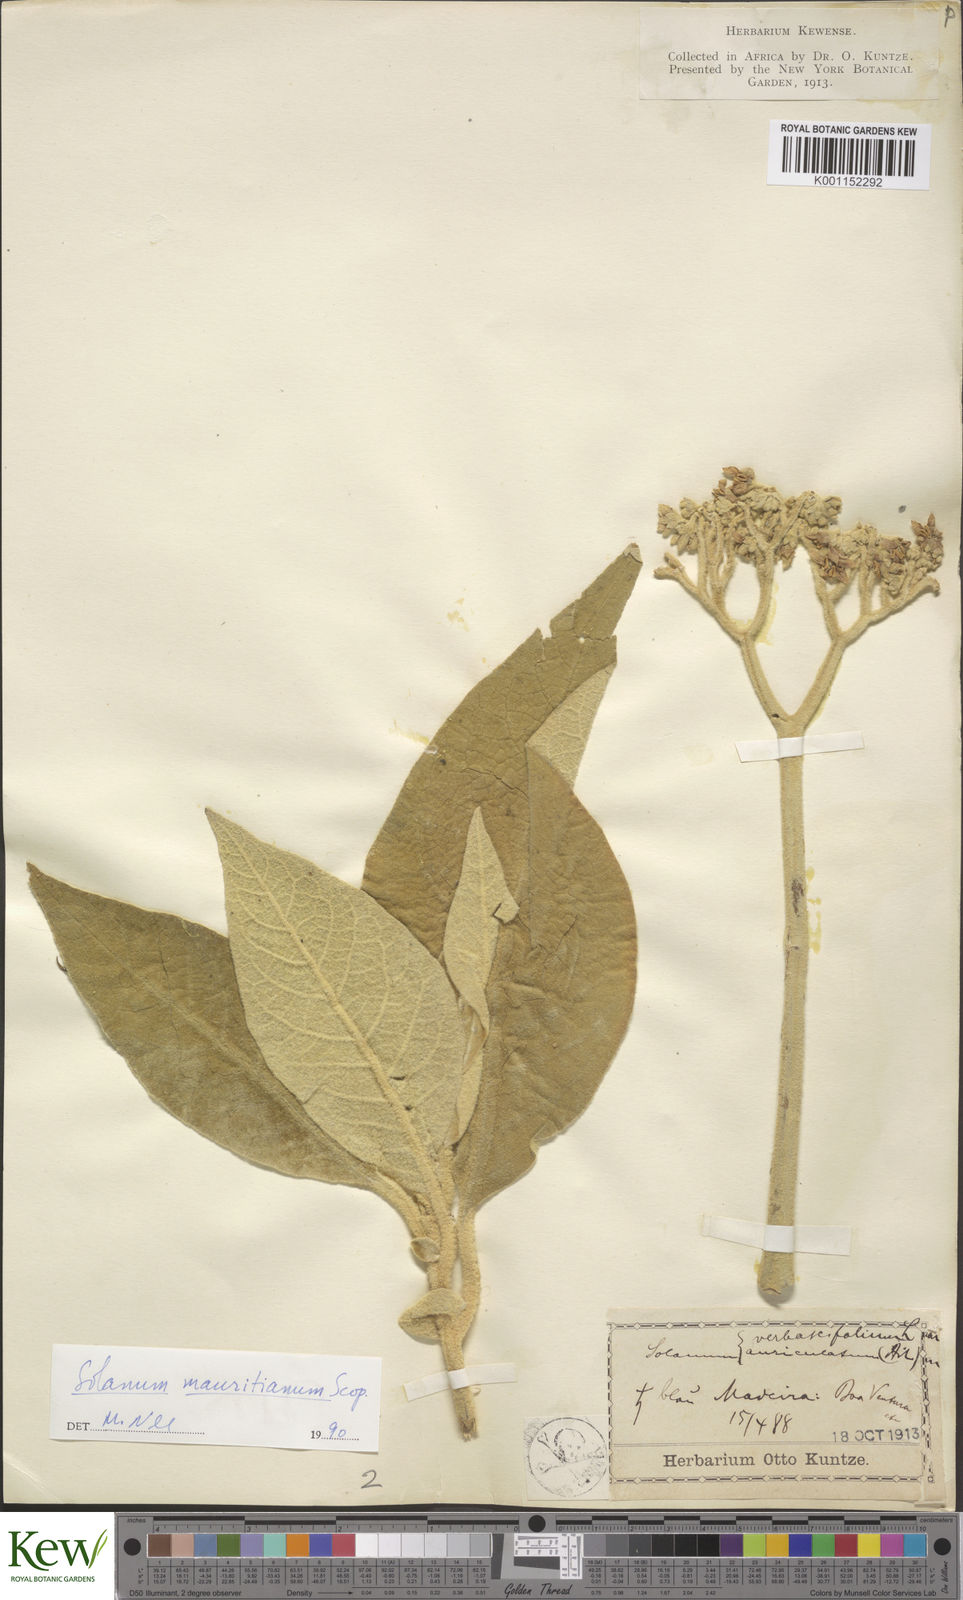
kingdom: Plantae
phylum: Tracheophyta
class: Magnoliopsida
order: Solanales
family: Solanaceae
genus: Solanum
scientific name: Solanum mauritianum
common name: Earleaf nightshade
